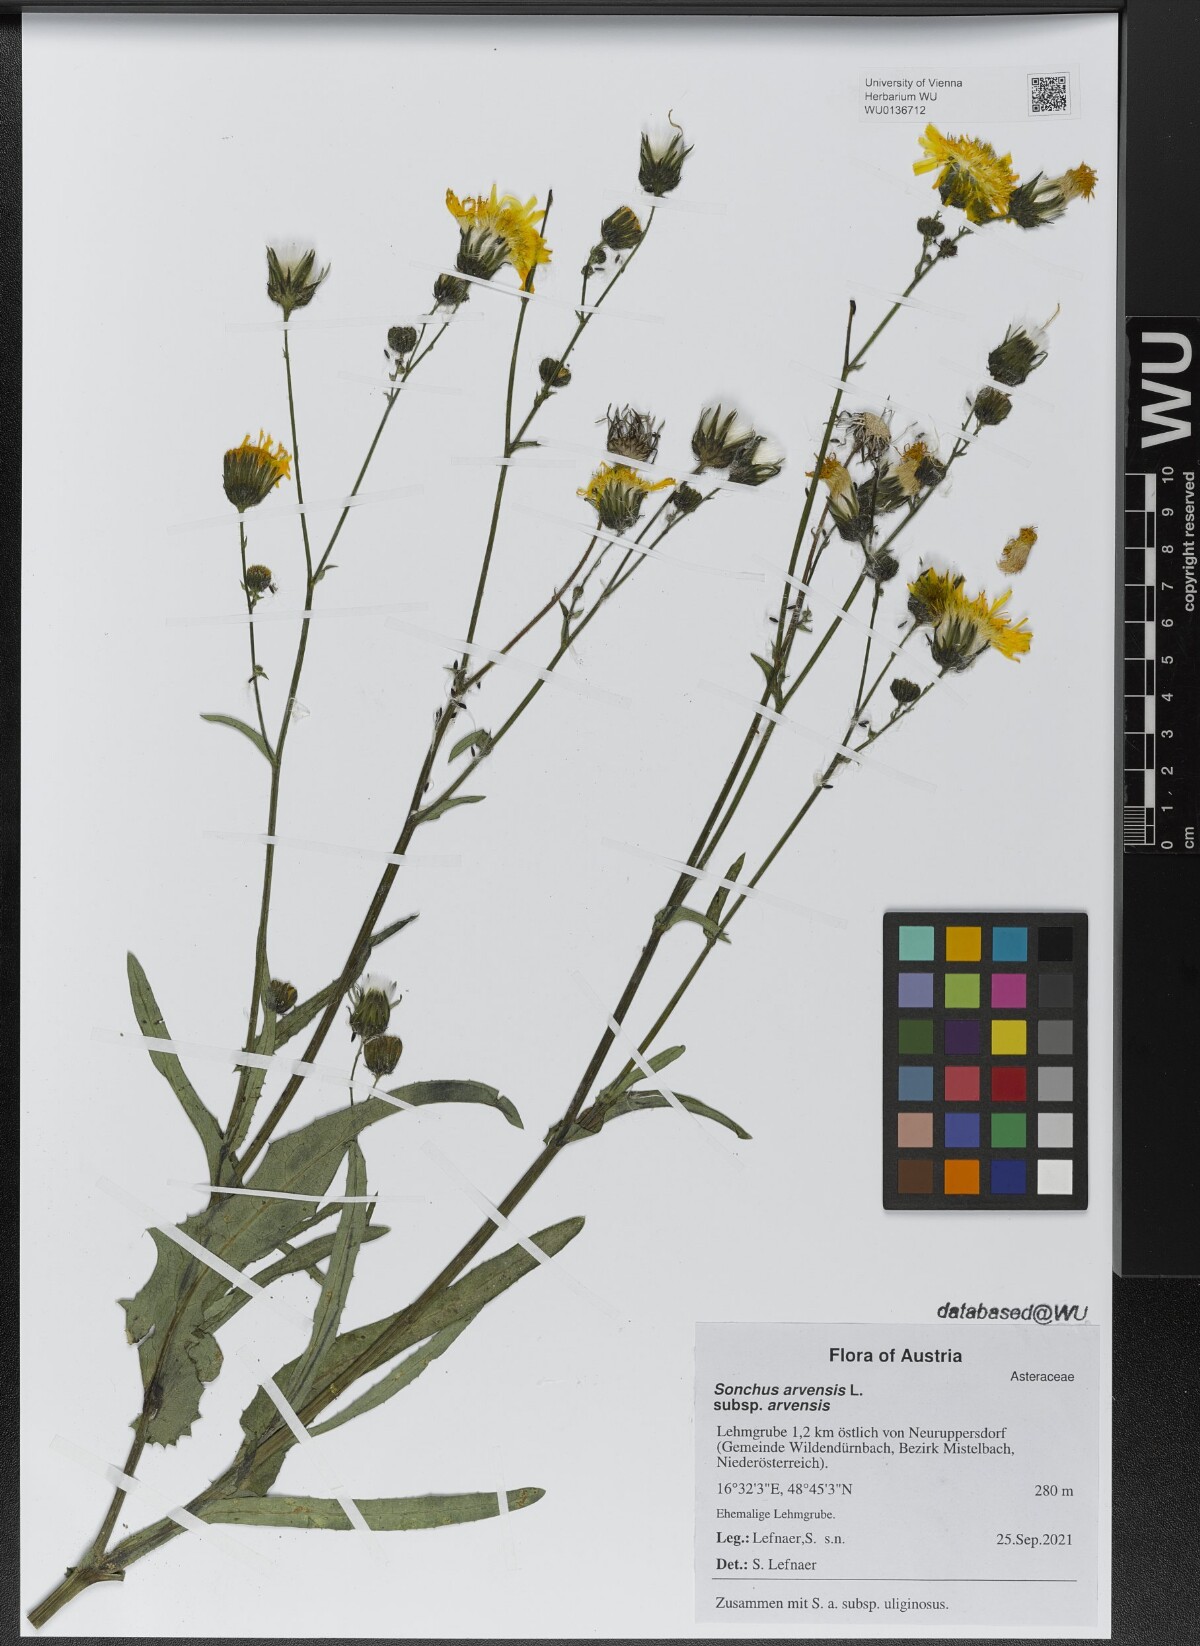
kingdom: Plantae
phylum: Tracheophyta
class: Magnoliopsida
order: Asterales
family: Asteraceae
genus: Sonchus
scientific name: Sonchus arvensis
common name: Perennial sow-thistle
